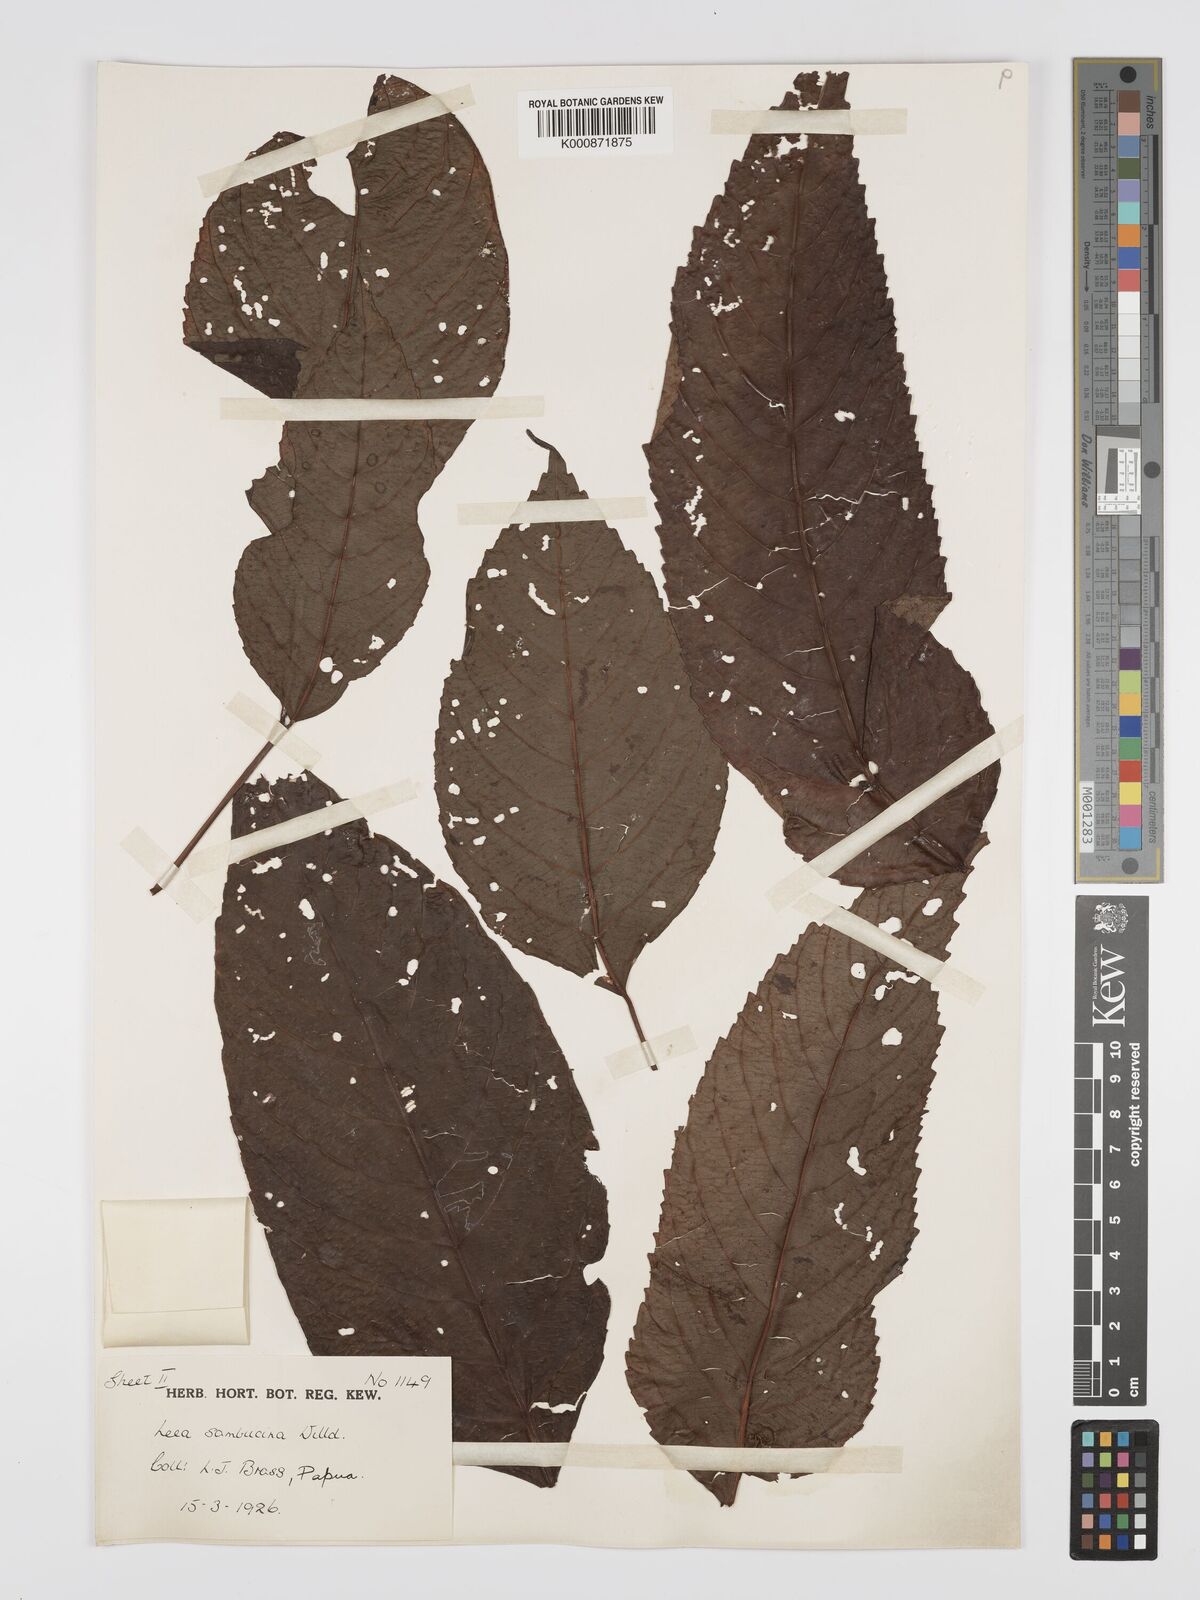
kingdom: Plantae
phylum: Tracheophyta
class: Magnoliopsida
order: Vitales
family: Vitaceae
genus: Leea
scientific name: Leea indica
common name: Bandicoot-berry
